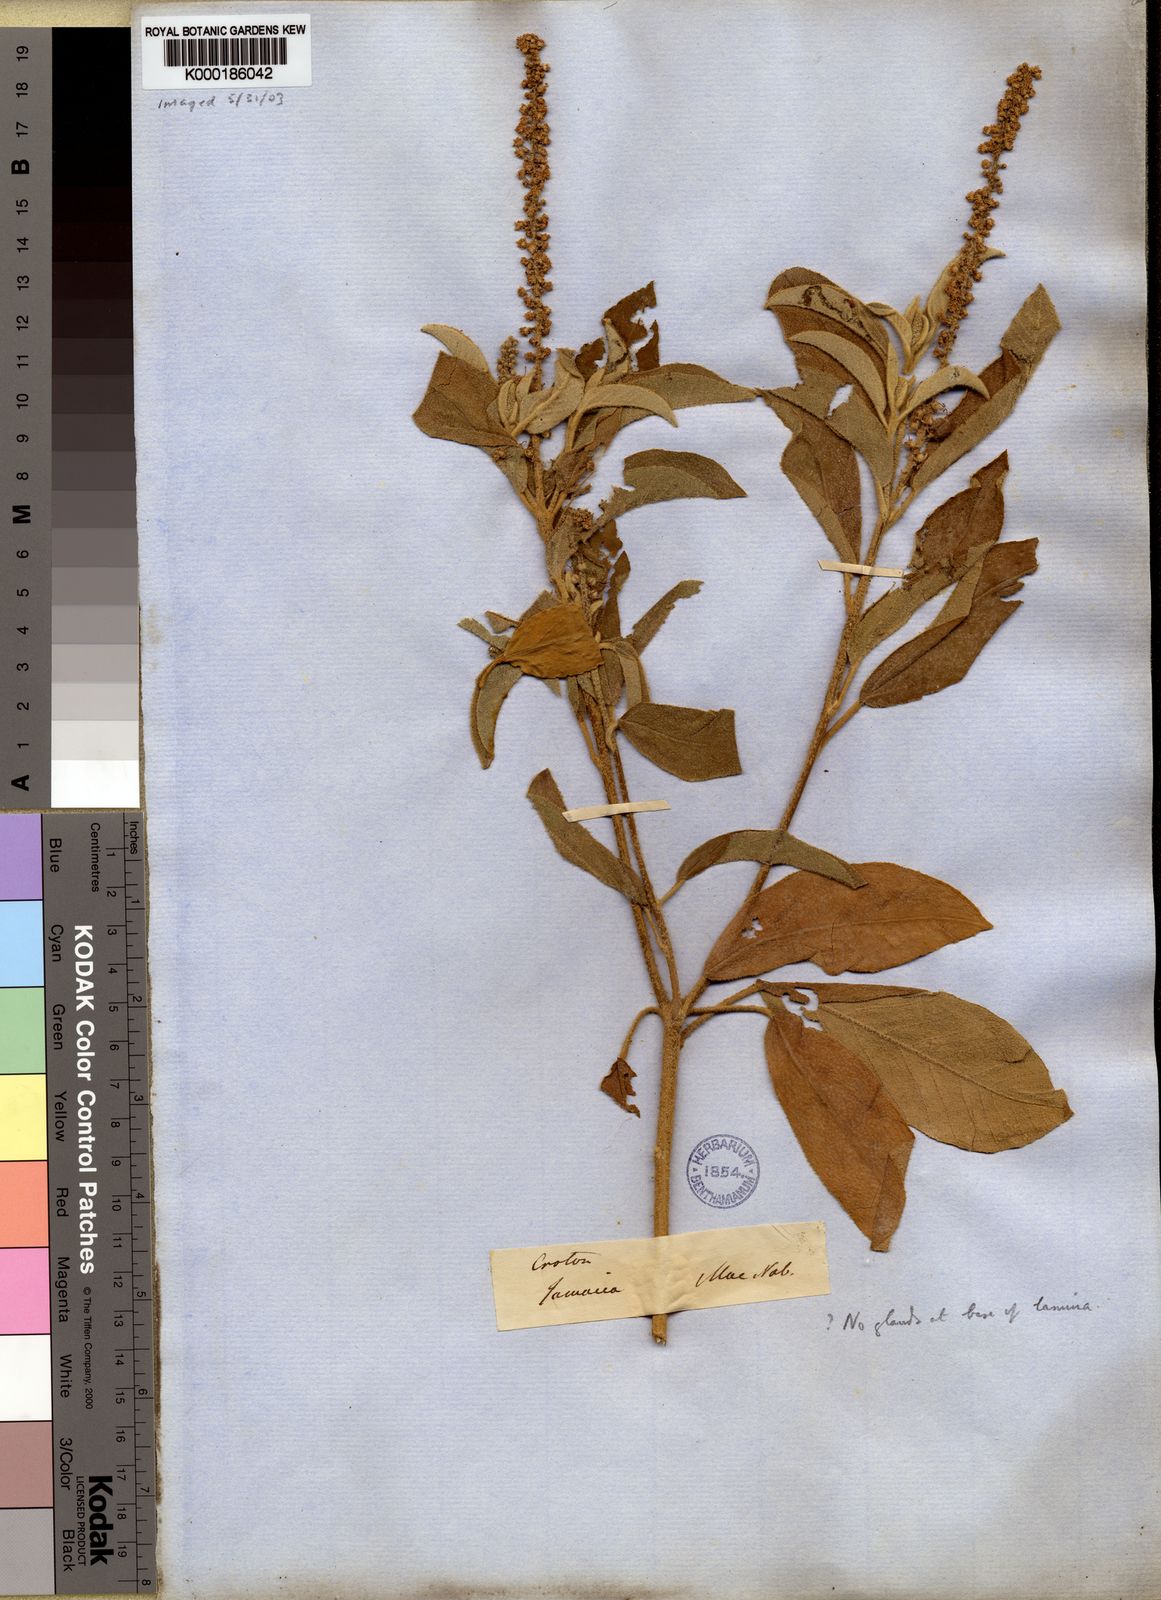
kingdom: Plantae
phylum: Tracheophyta
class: Magnoliopsida
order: Malpighiales
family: Euphorbiaceae
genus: Croton
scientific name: Croton flavens
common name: Yellow balsam
